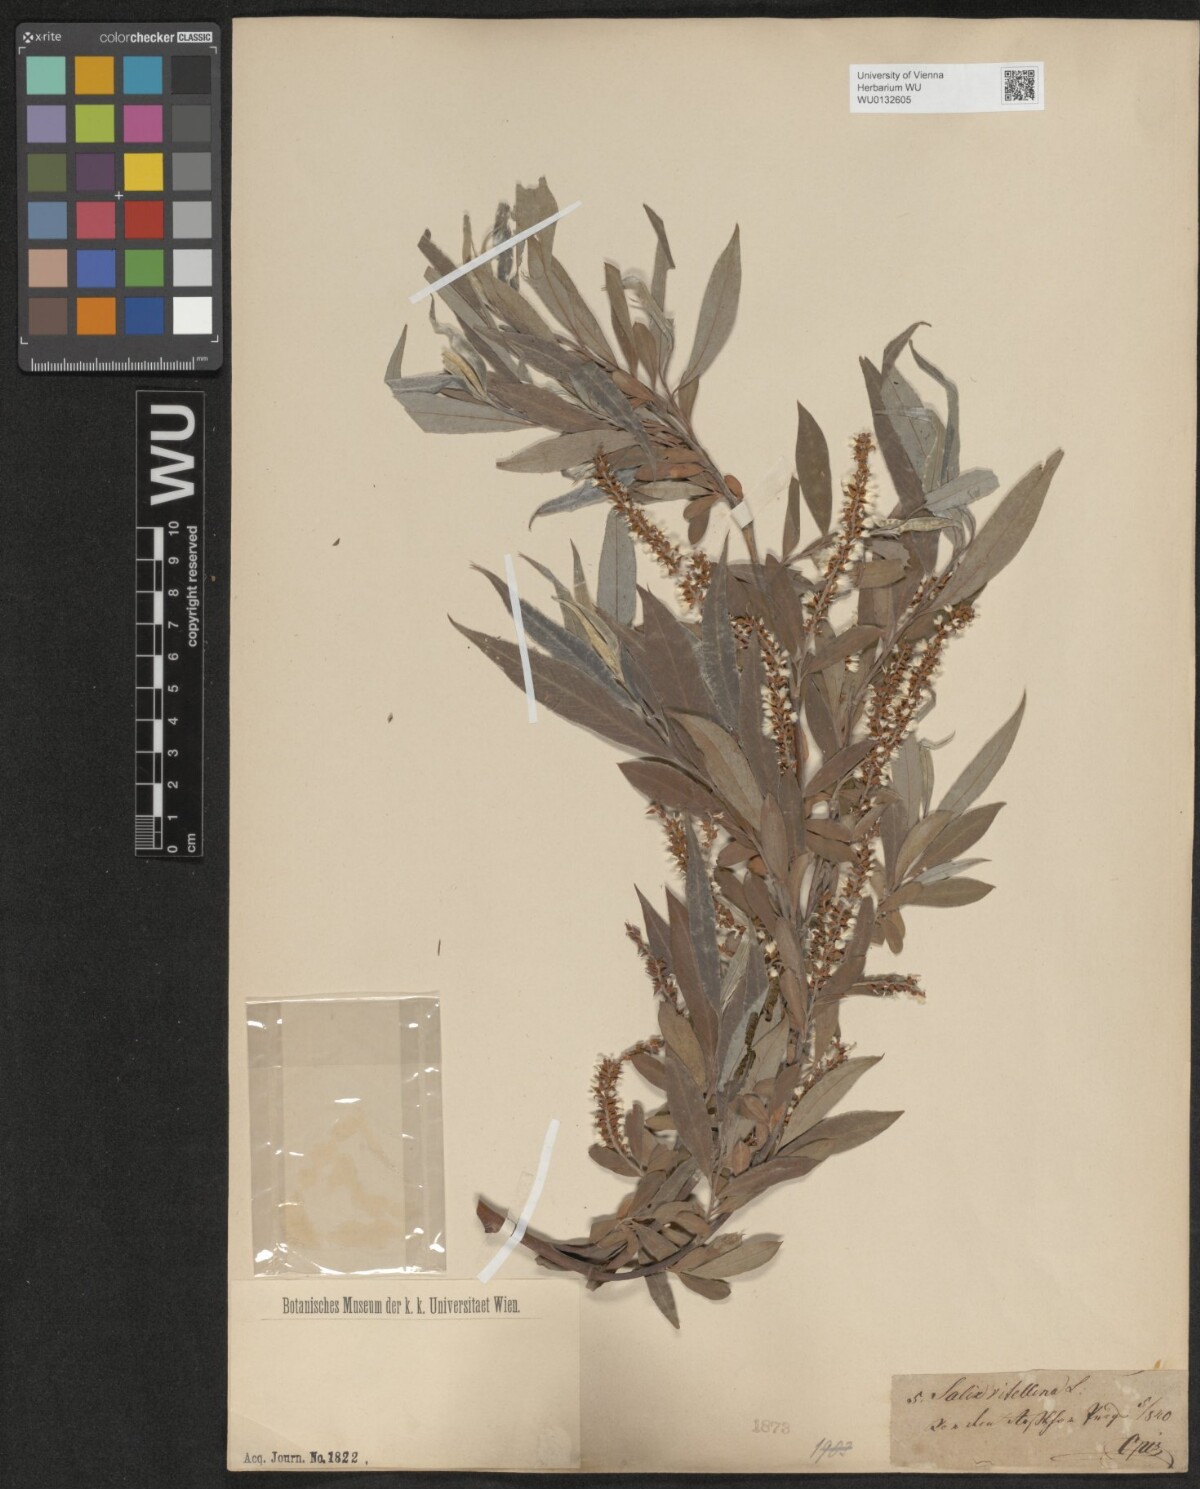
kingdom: Plantae
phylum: Tracheophyta
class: Magnoliopsida
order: Malpighiales
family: Salicaceae
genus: Salix
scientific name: Salix alba
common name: White willow
